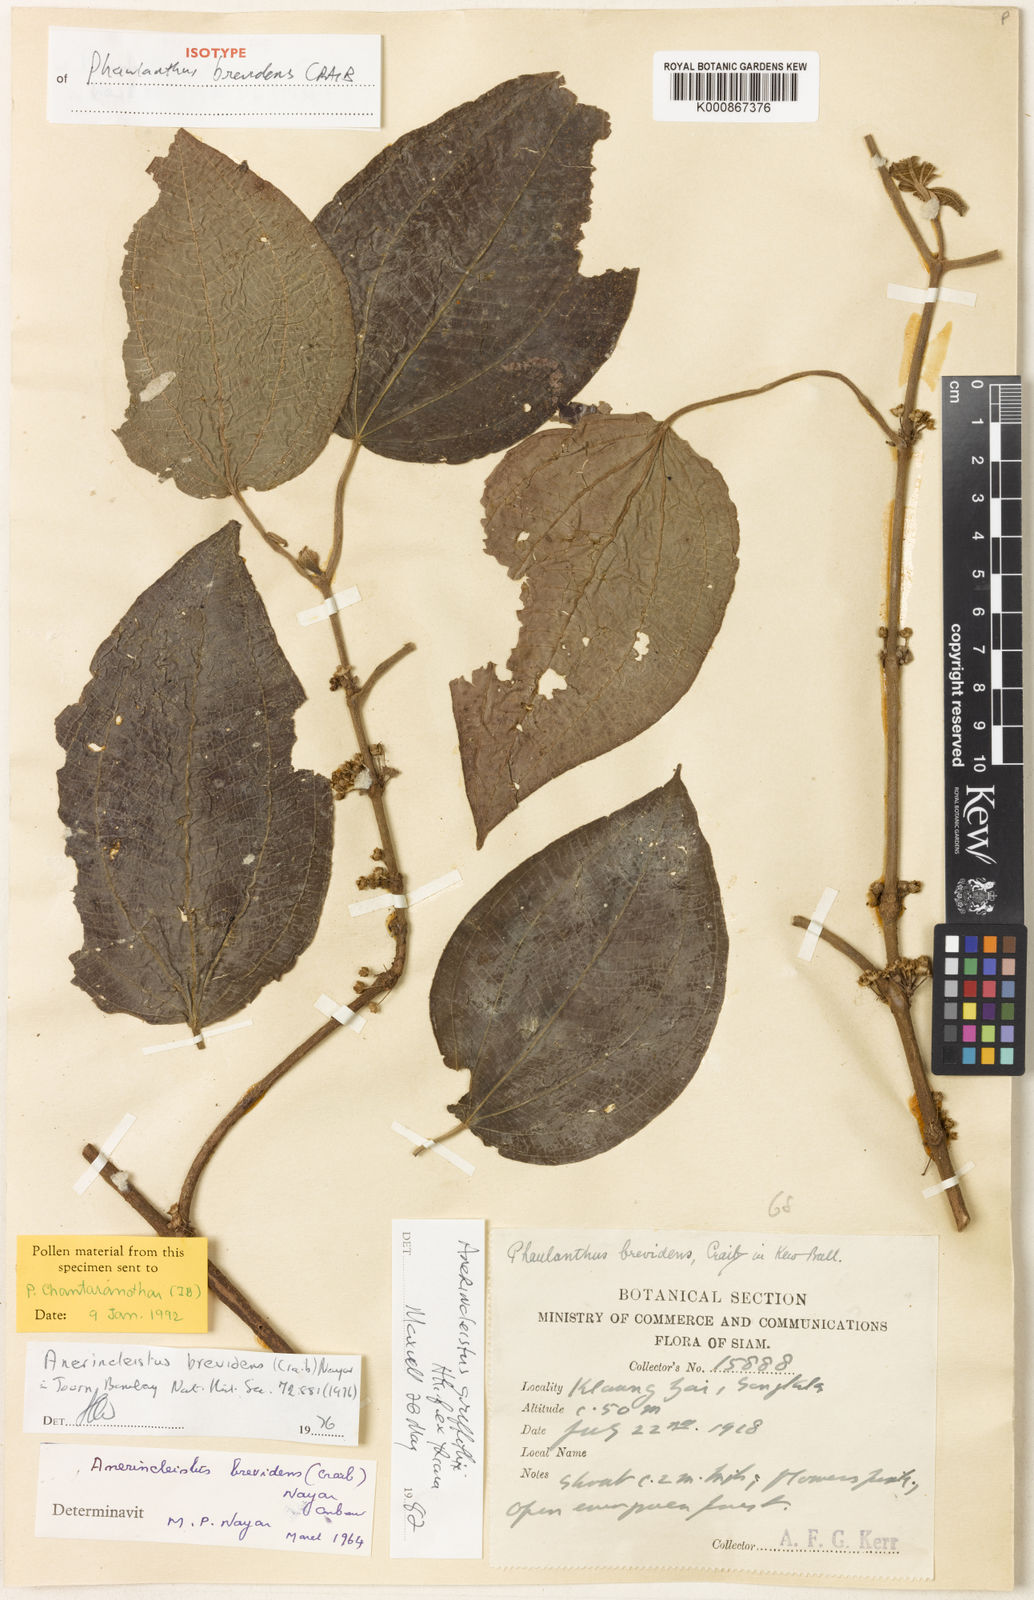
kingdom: Plantae
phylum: Tracheophyta
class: Magnoliopsida
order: Myrtales
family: Melastomataceae
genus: Anerincleistus
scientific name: Anerincleistus pedunculatus
